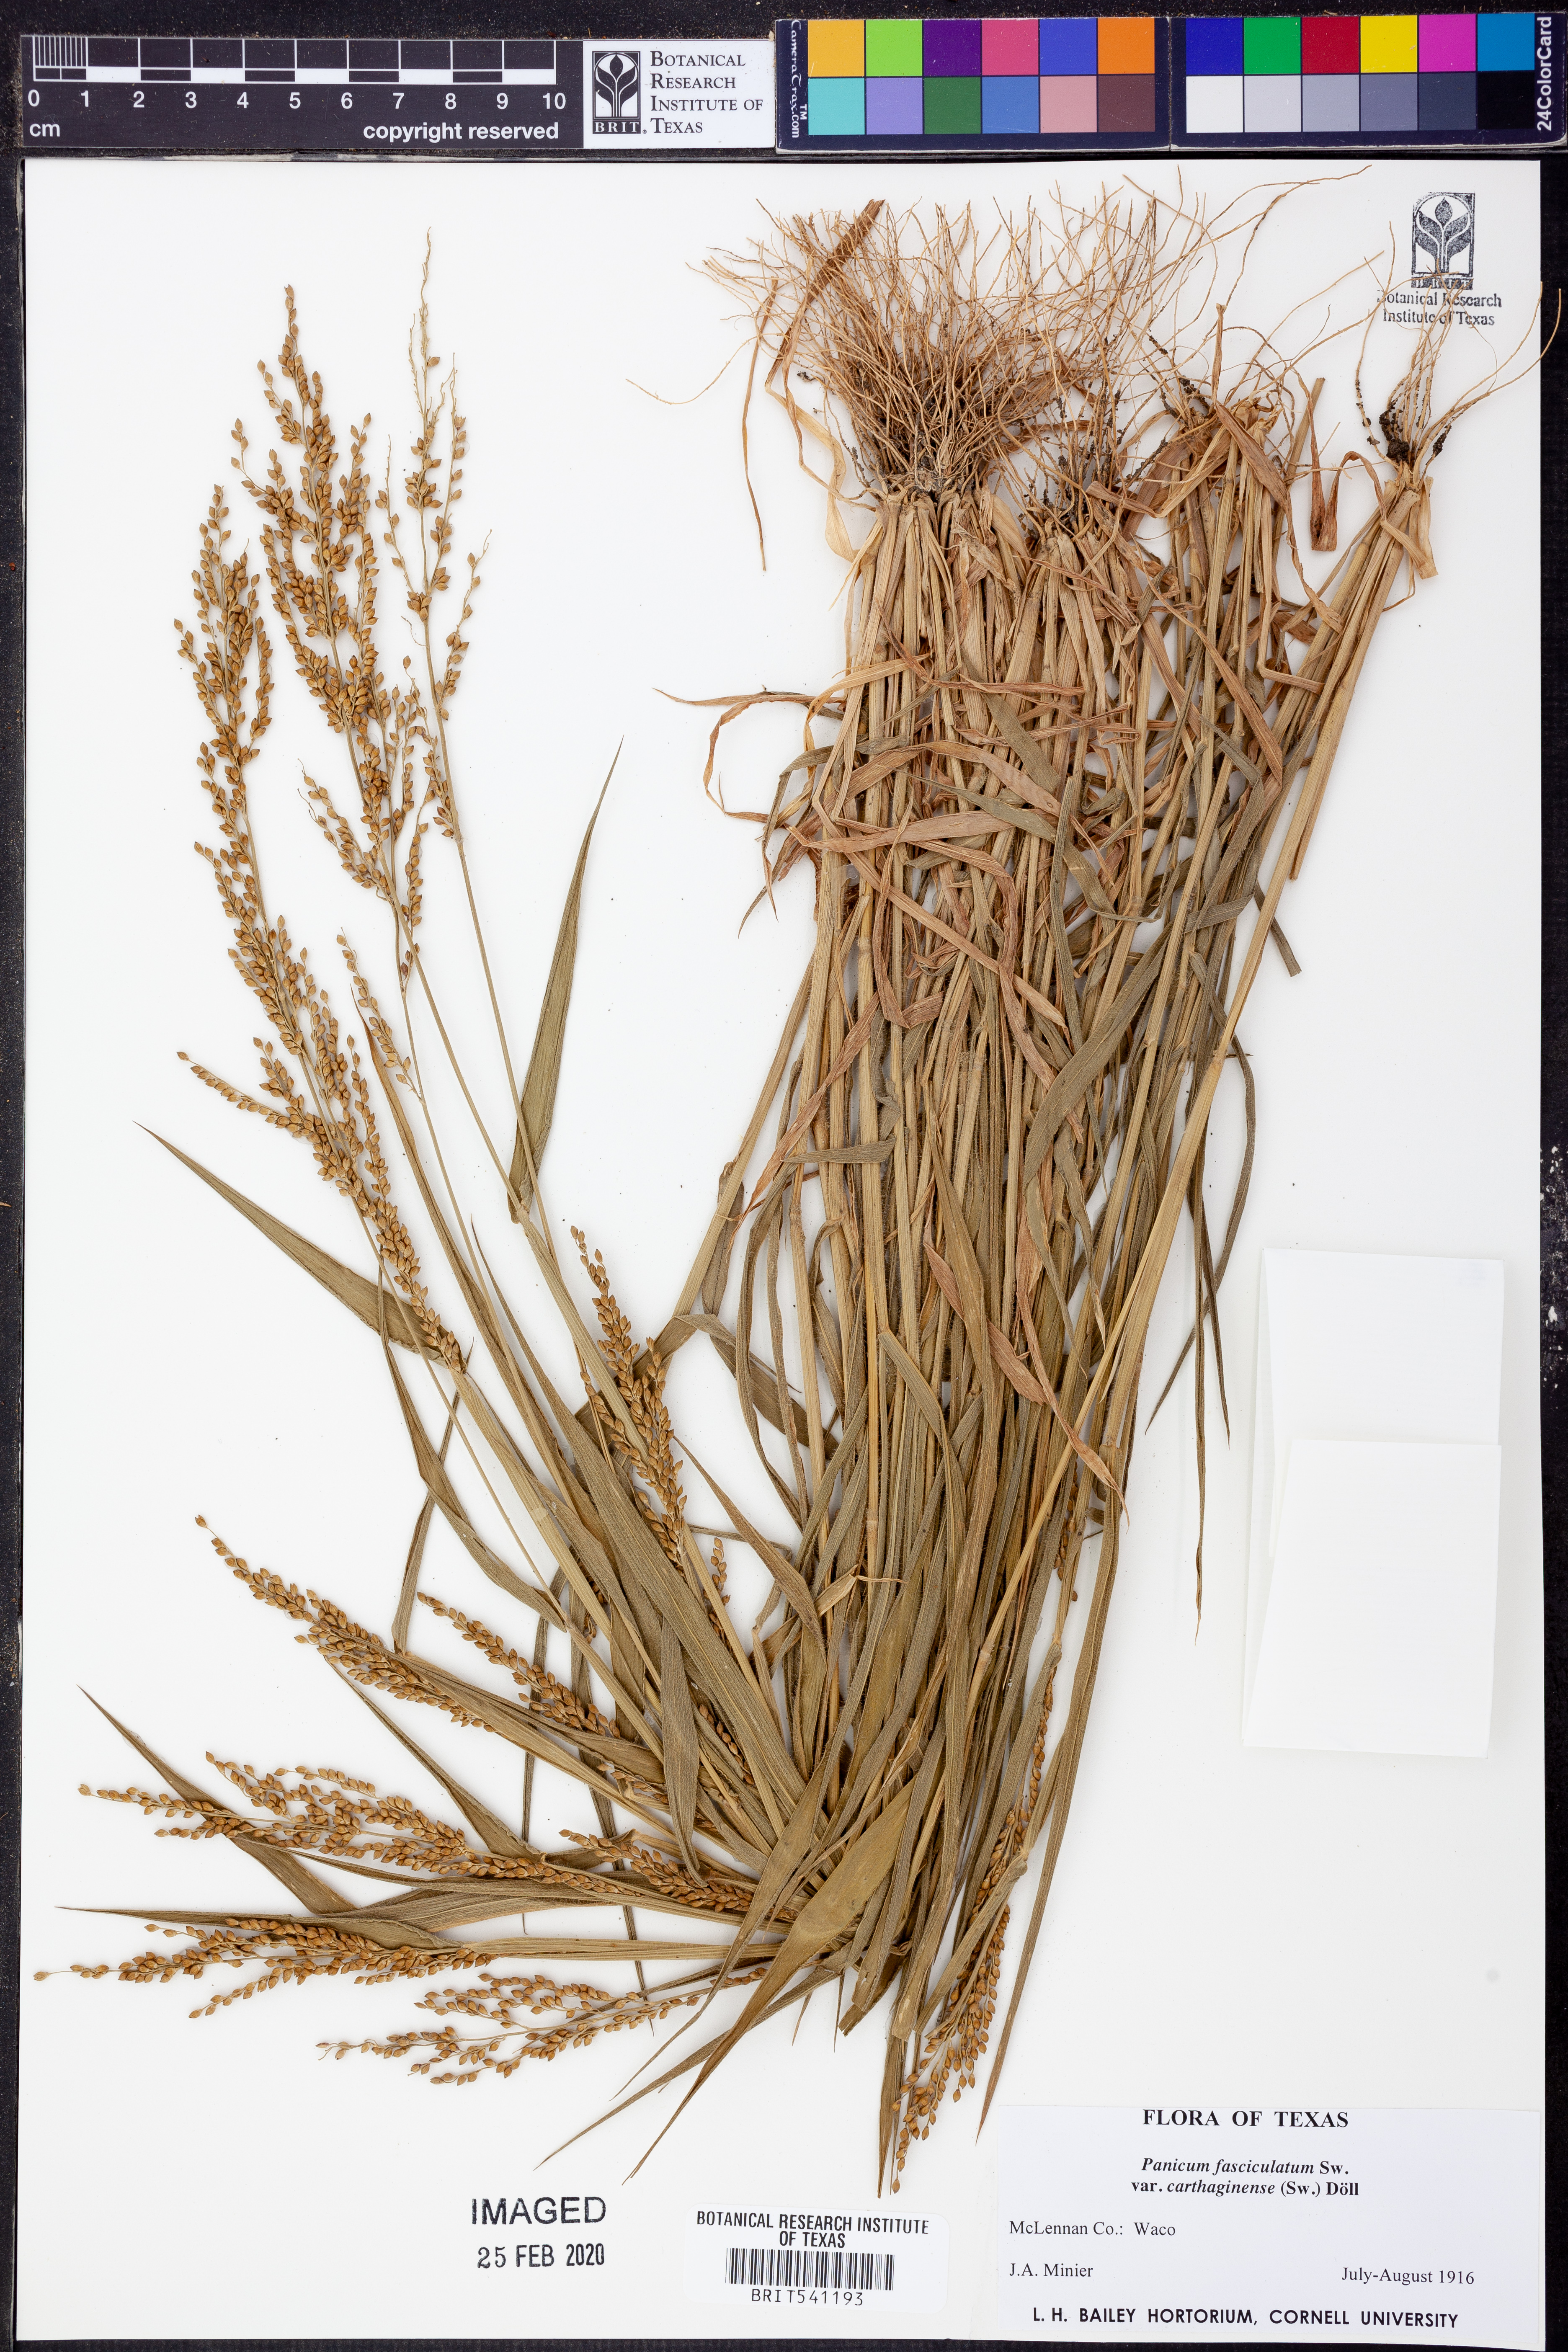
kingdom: Plantae
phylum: Tracheophyta
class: Liliopsida
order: Poales
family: Poaceae
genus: Urochloa
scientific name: Urochloa fusca
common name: Browntop signal grass
